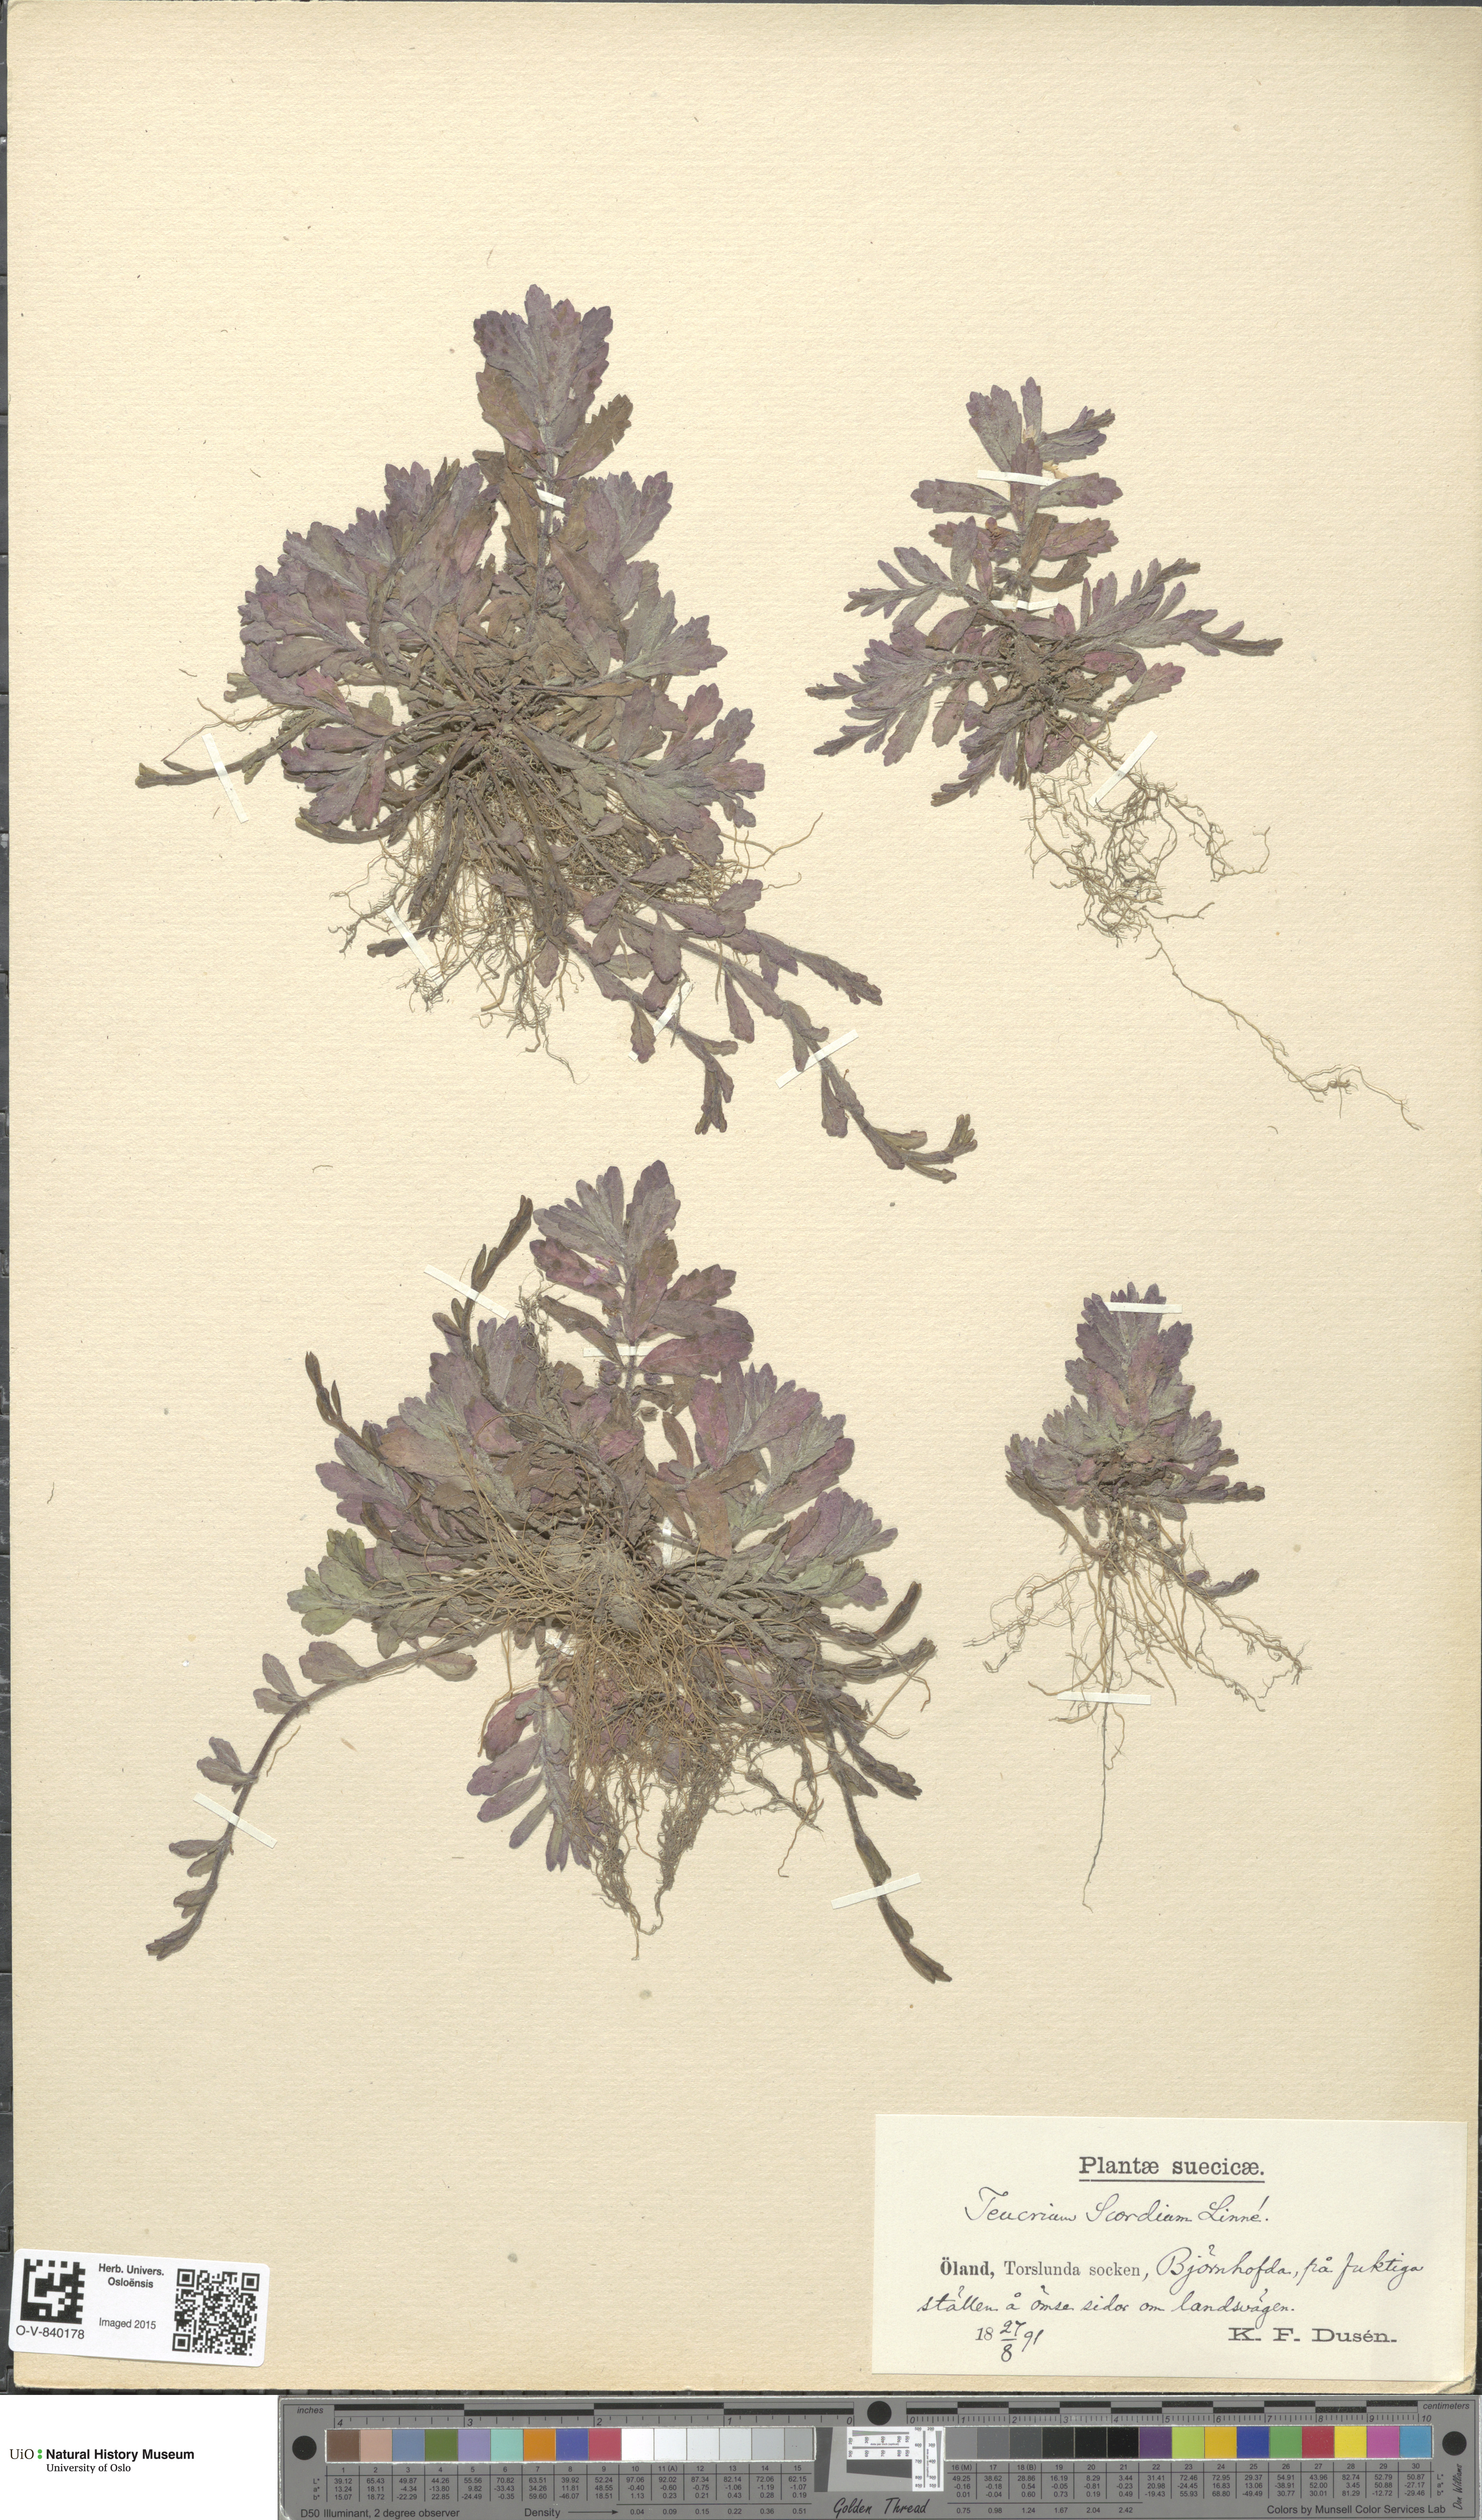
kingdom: Plantae
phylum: Tracheophyta
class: Magnoliopsida
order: Lamiales
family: Lamiaceae
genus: Teucrium
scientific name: Teucrium scordium
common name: Water germander
